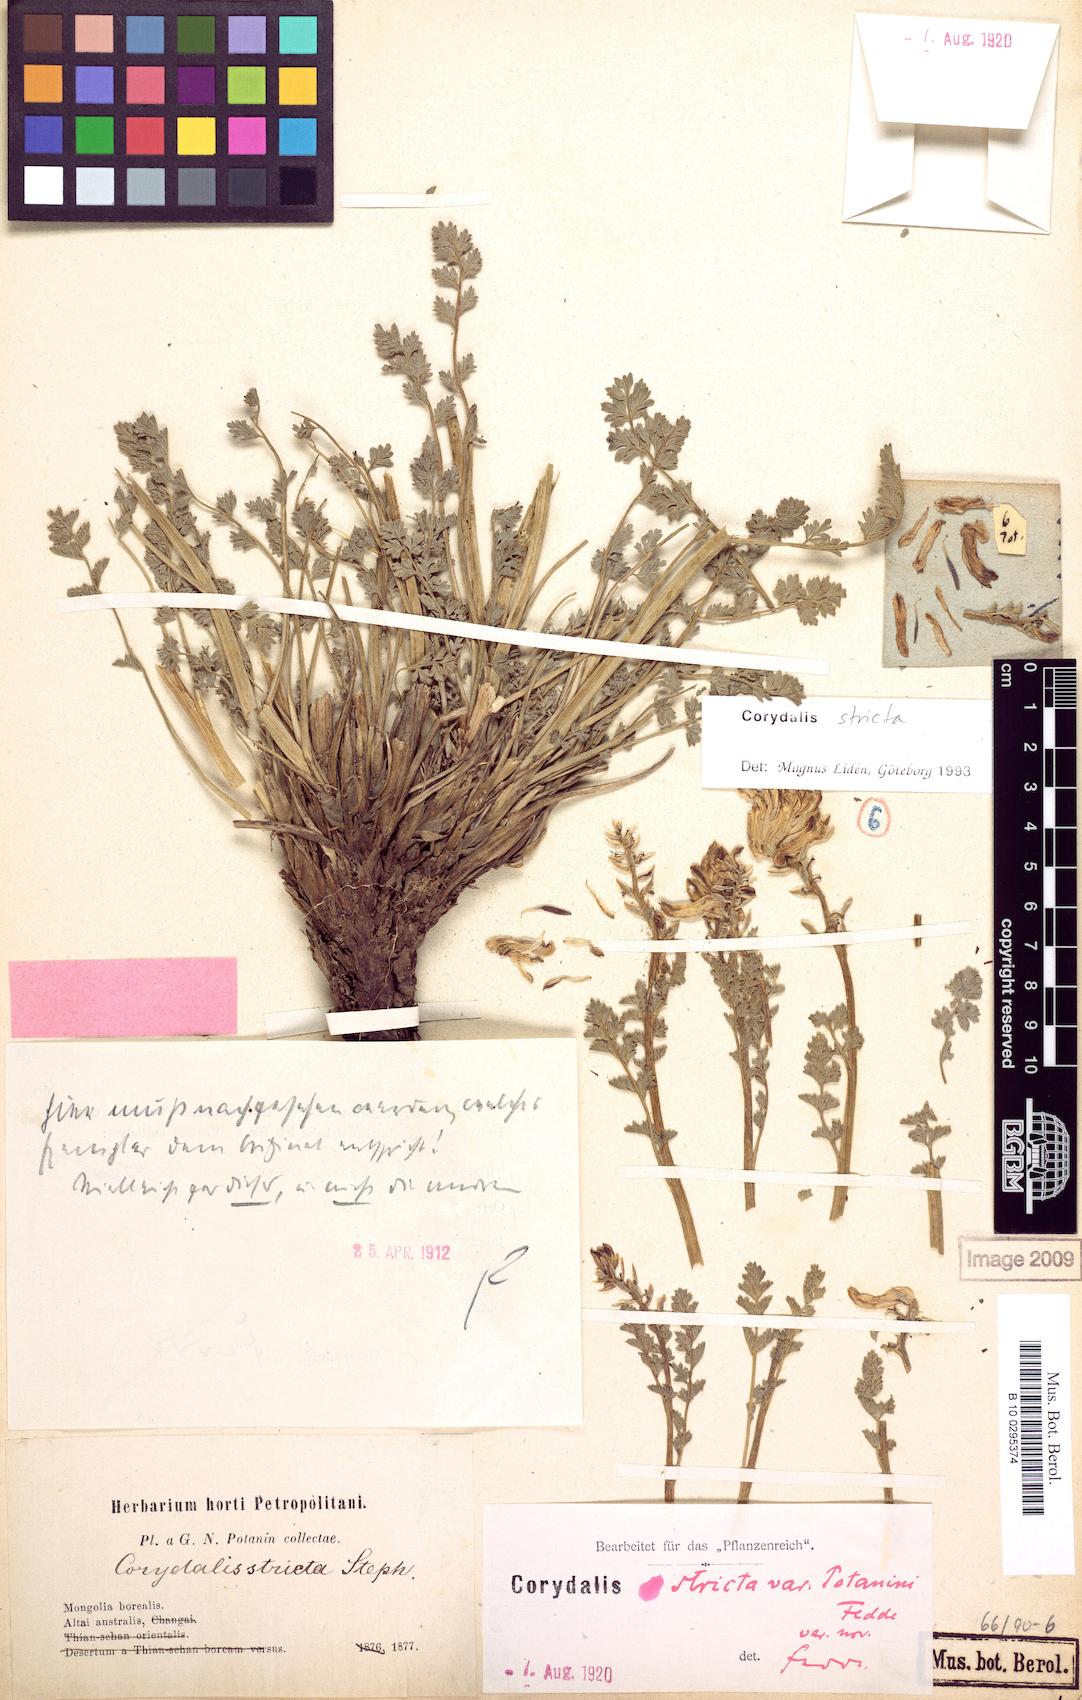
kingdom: Plantae
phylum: Tracheophyta
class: Magnoliopsida
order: Ranunculales
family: Papaveraceae
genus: Corydalis
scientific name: Corydalis stricta
